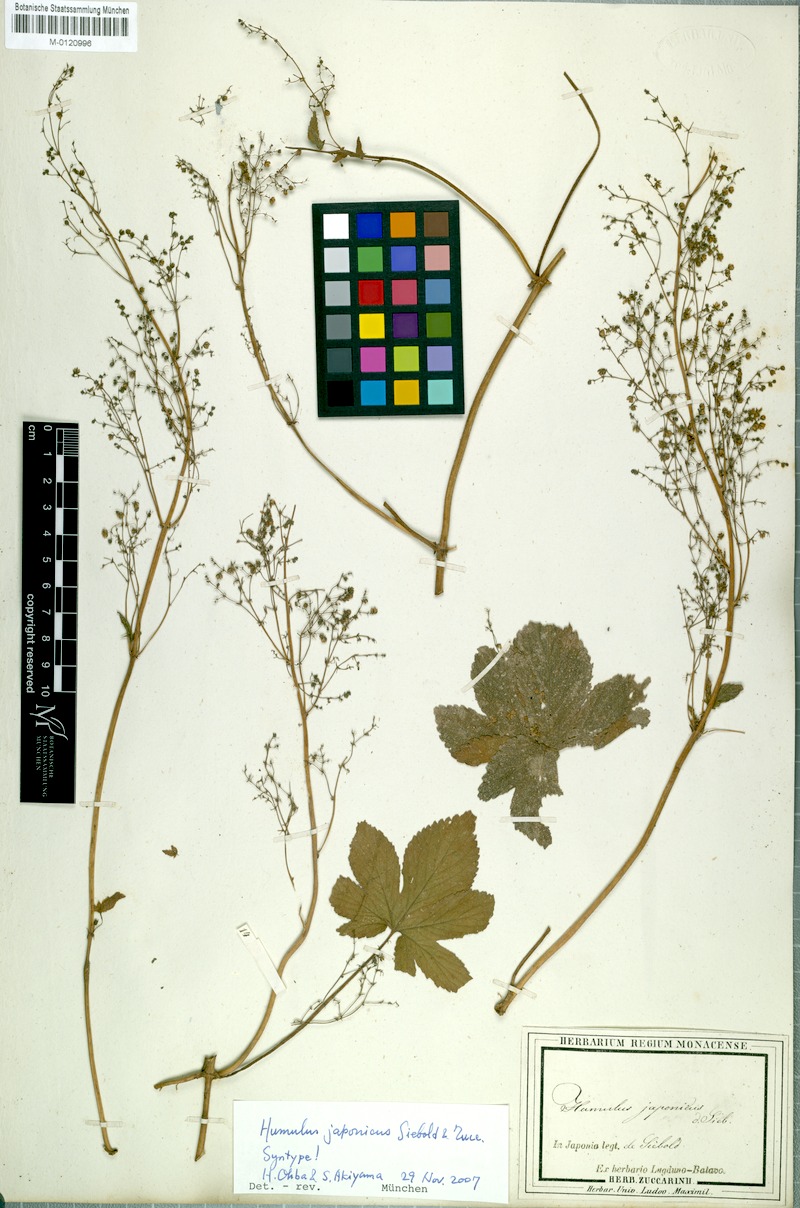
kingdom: Plantae
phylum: Tracheophyta
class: Magnoliopsida
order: Rosales
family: Cannabaceae
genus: Humulus
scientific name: Humulus scandens
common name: Japanese hop
